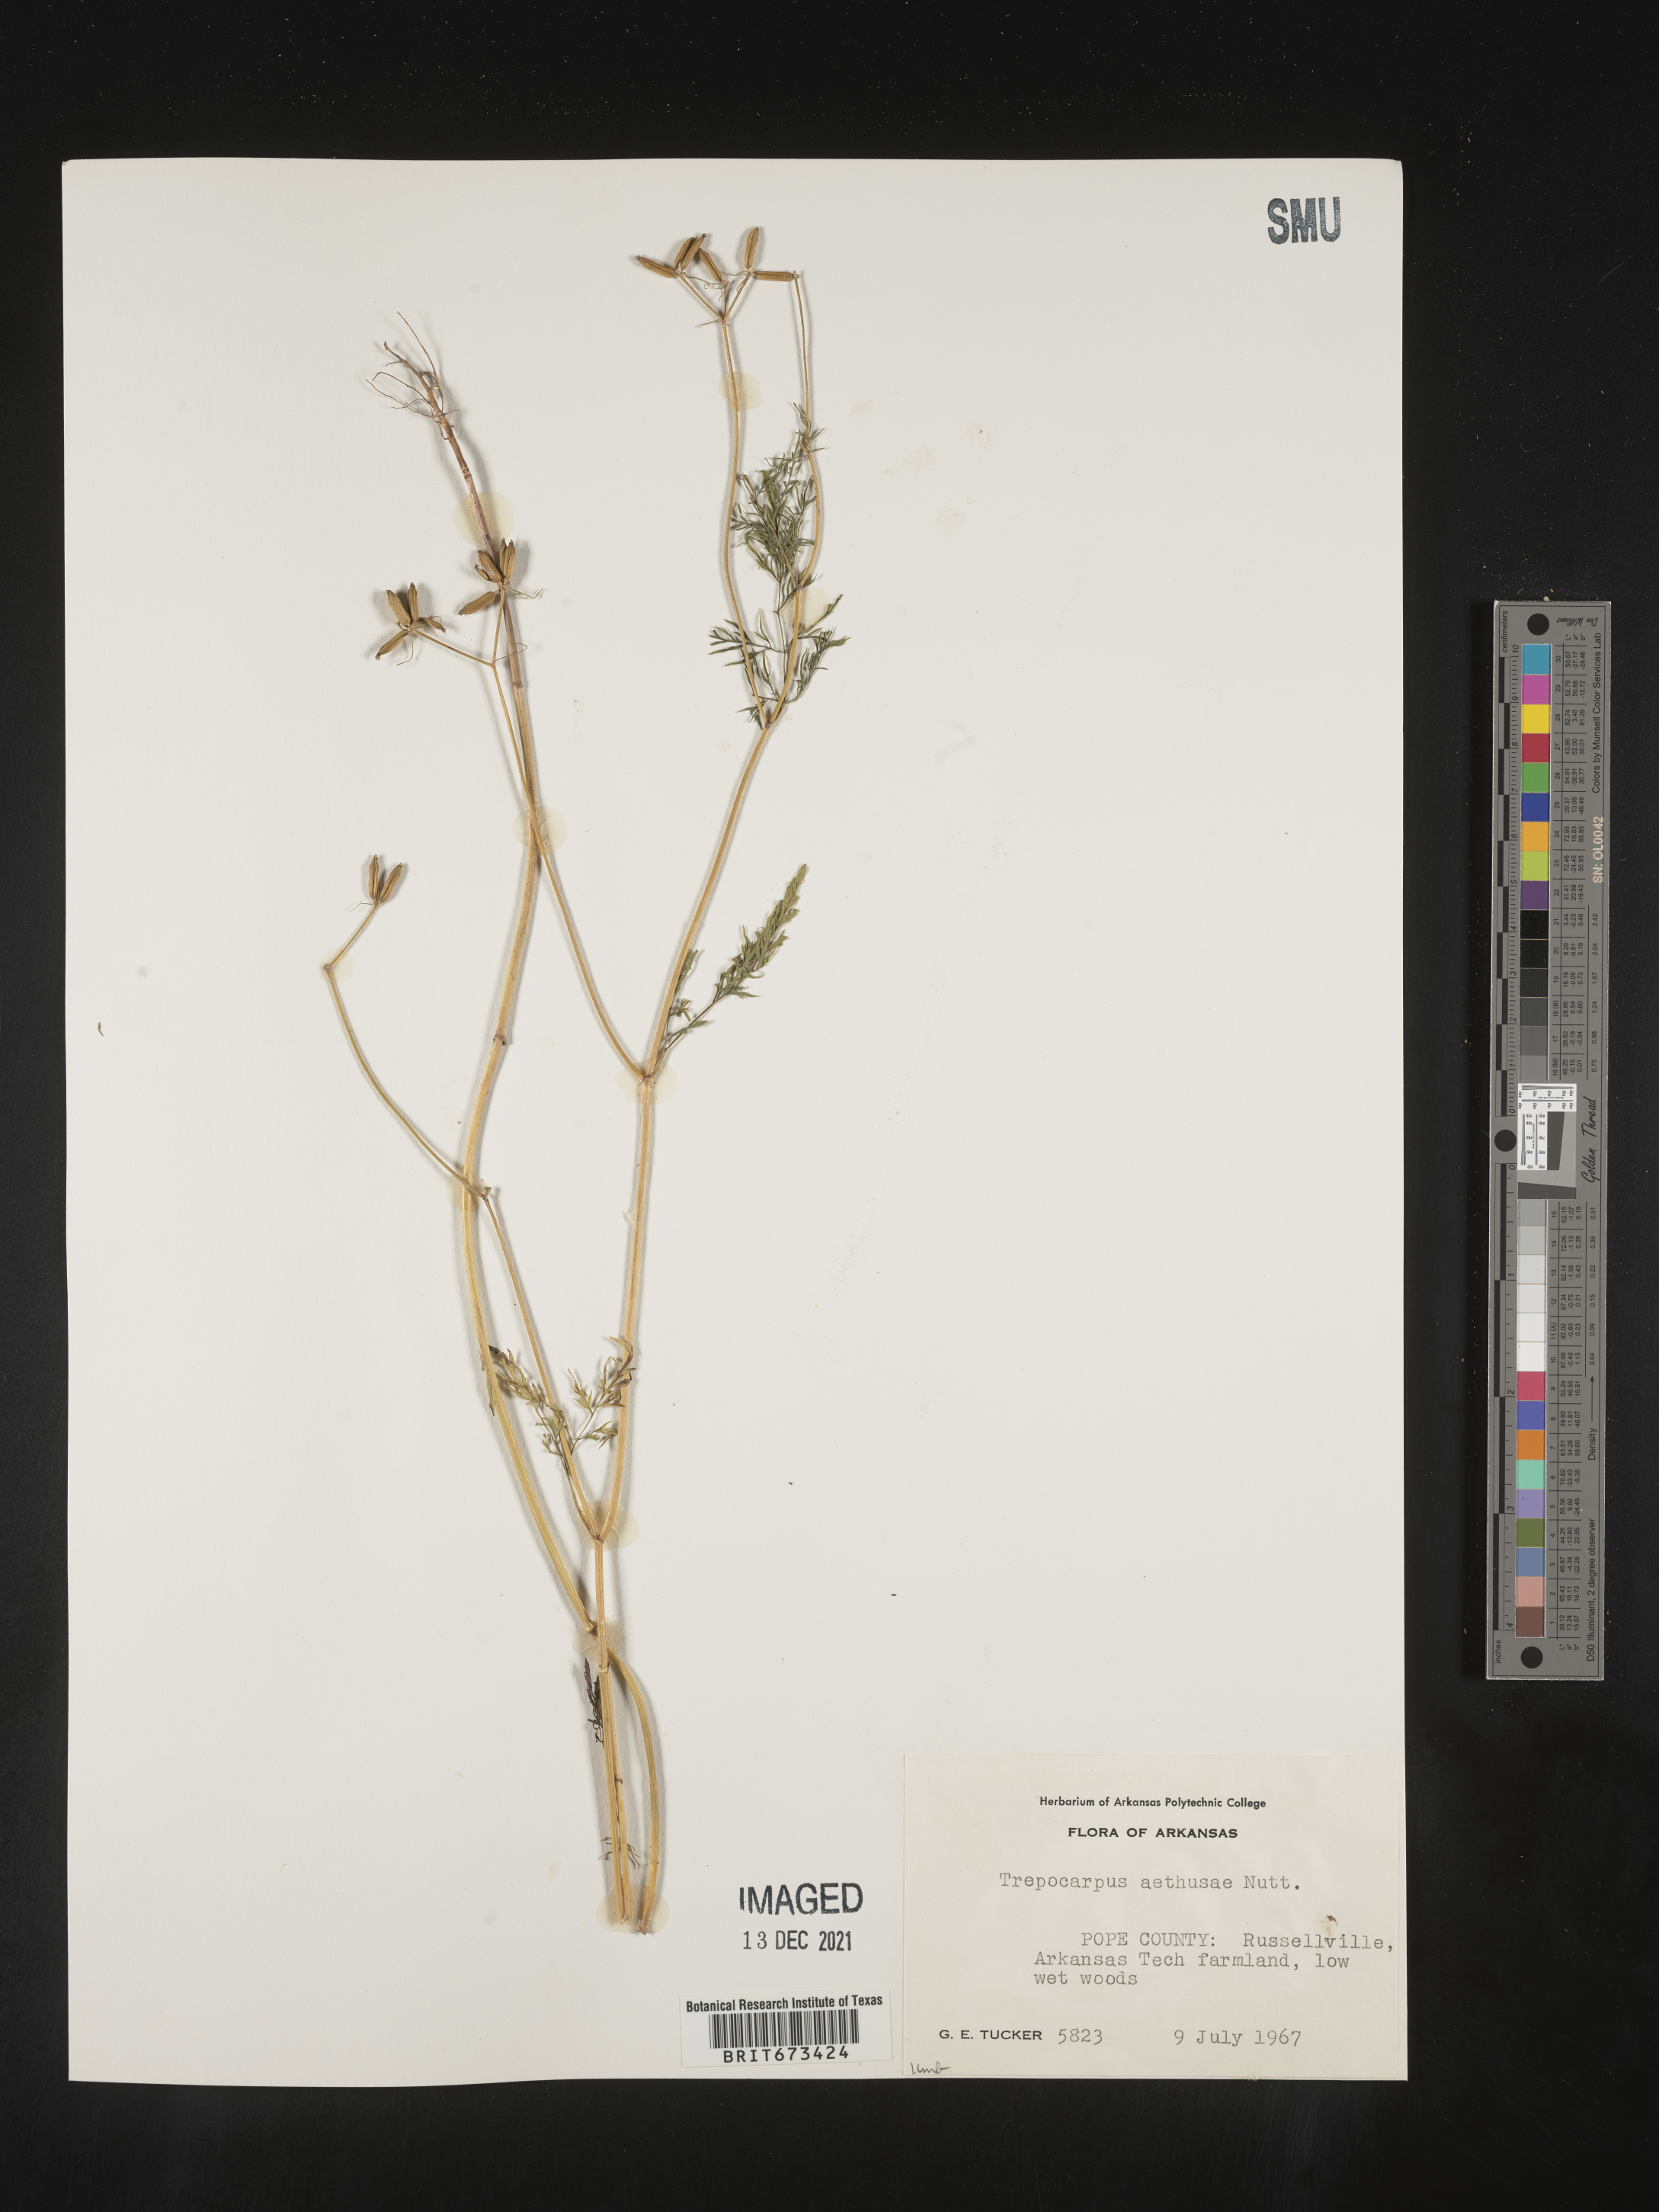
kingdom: Plantae
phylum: Tracheophyta
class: Magnoliopsida
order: Apiales
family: Apiaceae
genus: Trepocarpus
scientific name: Trepocarpus aethusae
